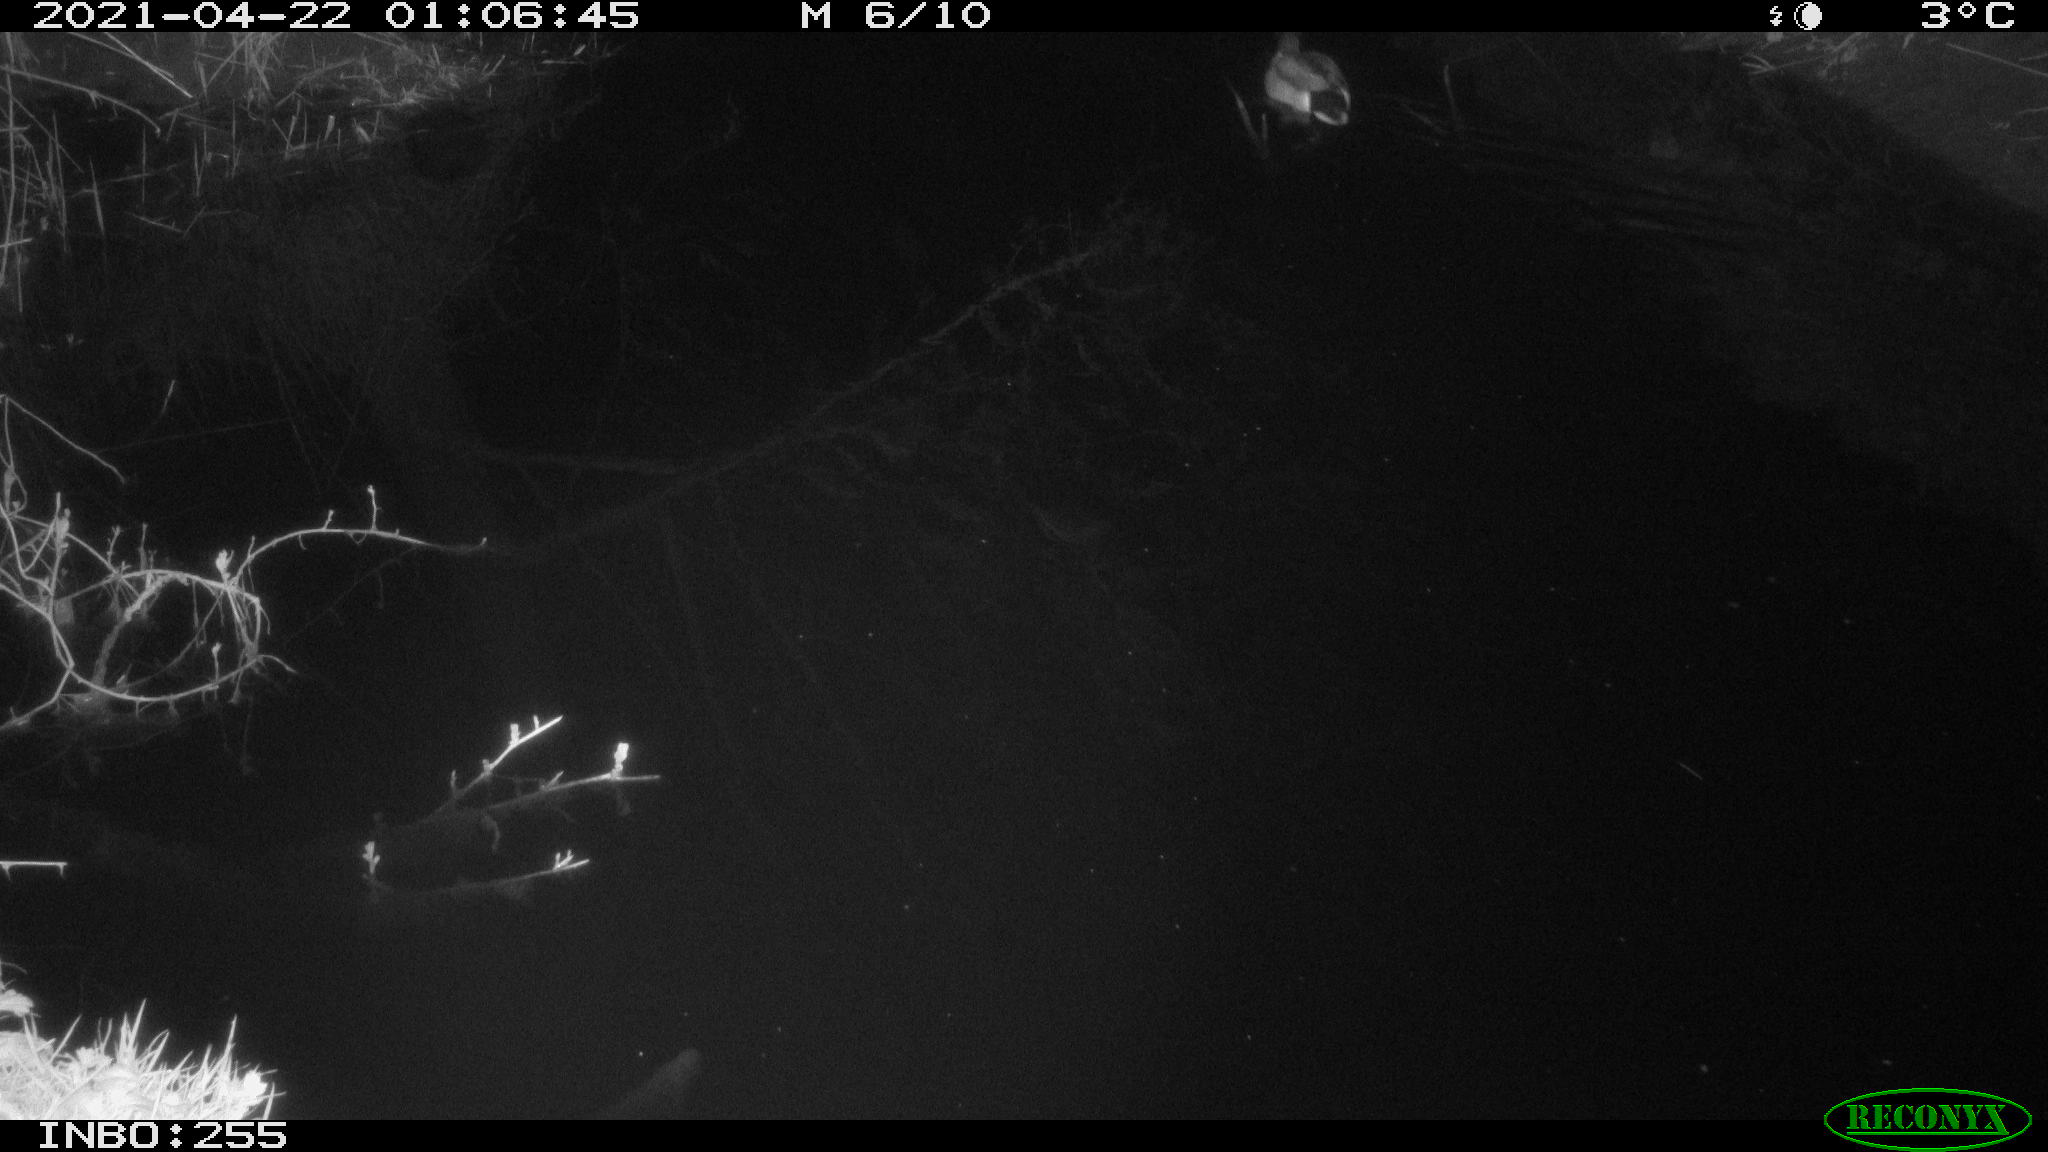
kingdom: Animalia
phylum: Chordata
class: Aves
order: Anseriformes
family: Anatidae
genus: Anas
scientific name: Anas platyrhynchos
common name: Mallard
